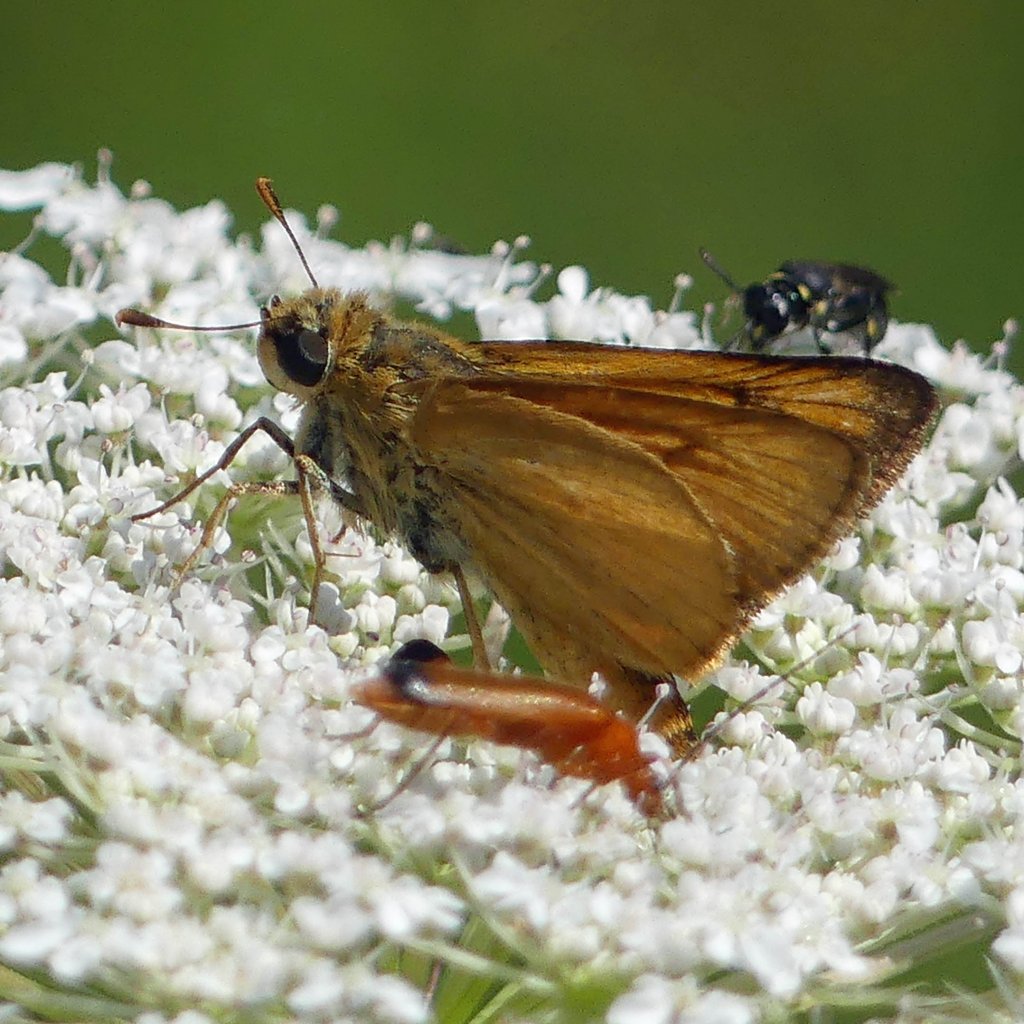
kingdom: Animalia
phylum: Arthropoda
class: Insecta
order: Lepidoptera
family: Hesperiidae
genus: Atrytone
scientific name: Atrytone delaware
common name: Delaware Skipper
